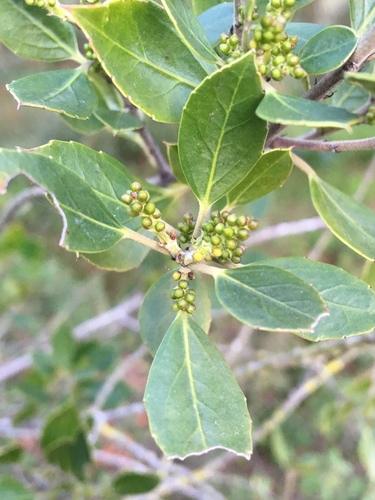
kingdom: Plantae
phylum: Tracheophyta
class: Magnoliopsida
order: Rosales
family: Rhamnaceae
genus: Rhamnus
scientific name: Rhamnus alaternus
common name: Mediterranean buckthorn
